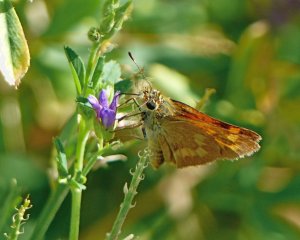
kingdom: Animalia
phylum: Arthropoda
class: Insecta
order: Lepidoptera
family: Hesperiidae
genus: Ochlodes
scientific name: Ochlodes sylvanoides
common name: Woodland Skipper
